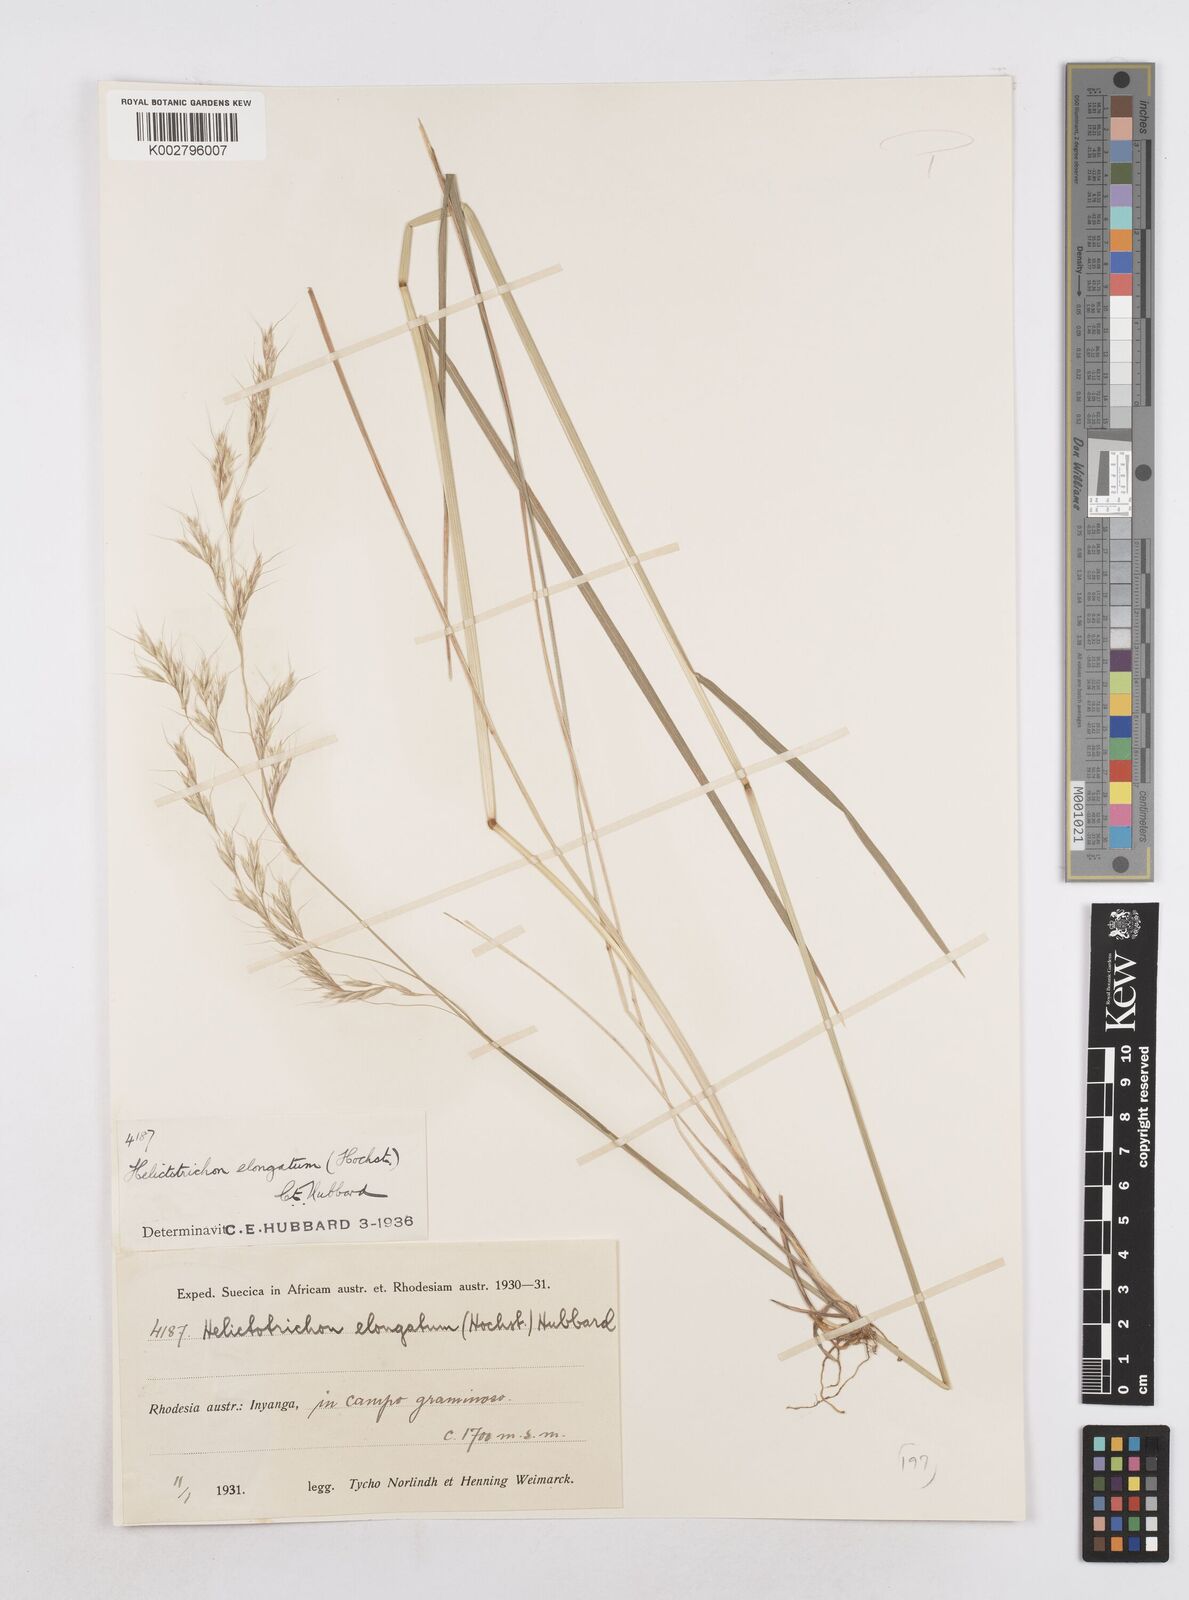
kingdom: Plantae
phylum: Tracheophyta
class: Liliopsida
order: Poales
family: Poaceae
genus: Trisetopsis
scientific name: Trisetopsis elongata
